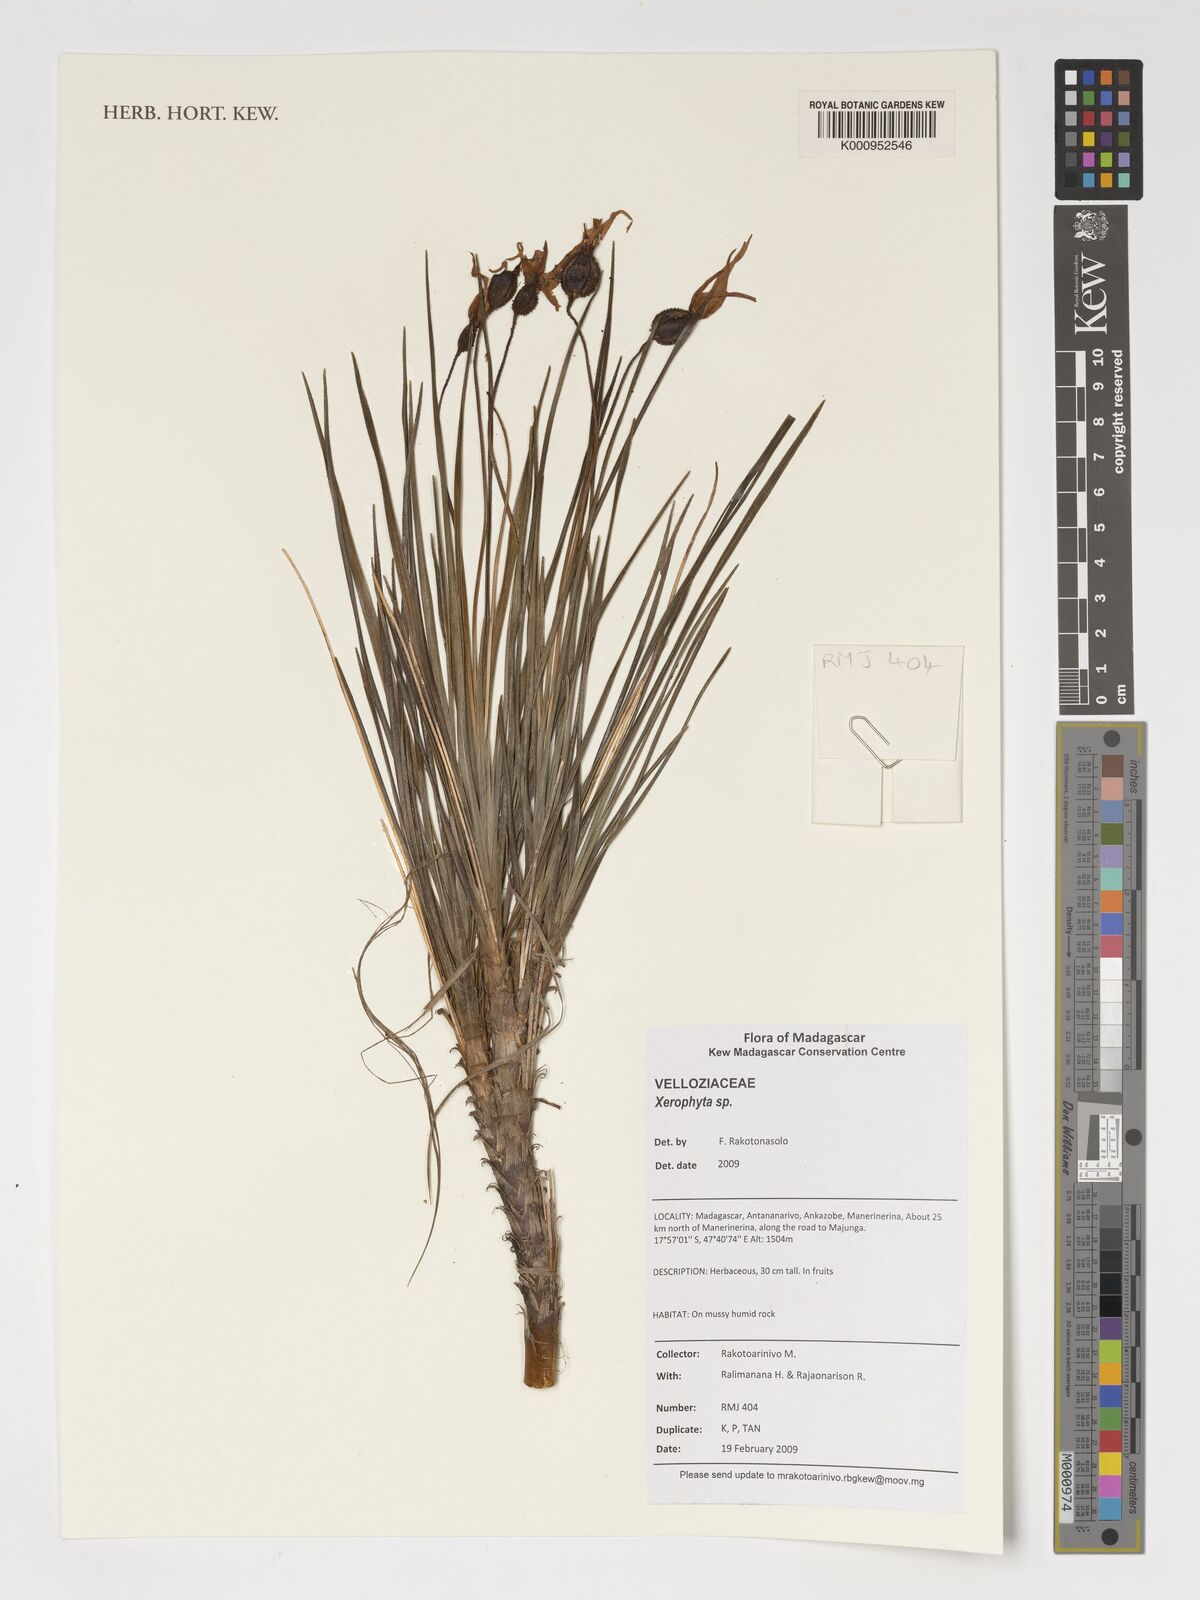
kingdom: Plantae
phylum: Tracheophyta
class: Liliopsida
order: Pandanales
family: Velloziaceae
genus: Xerophyta
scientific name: Xerophyta
